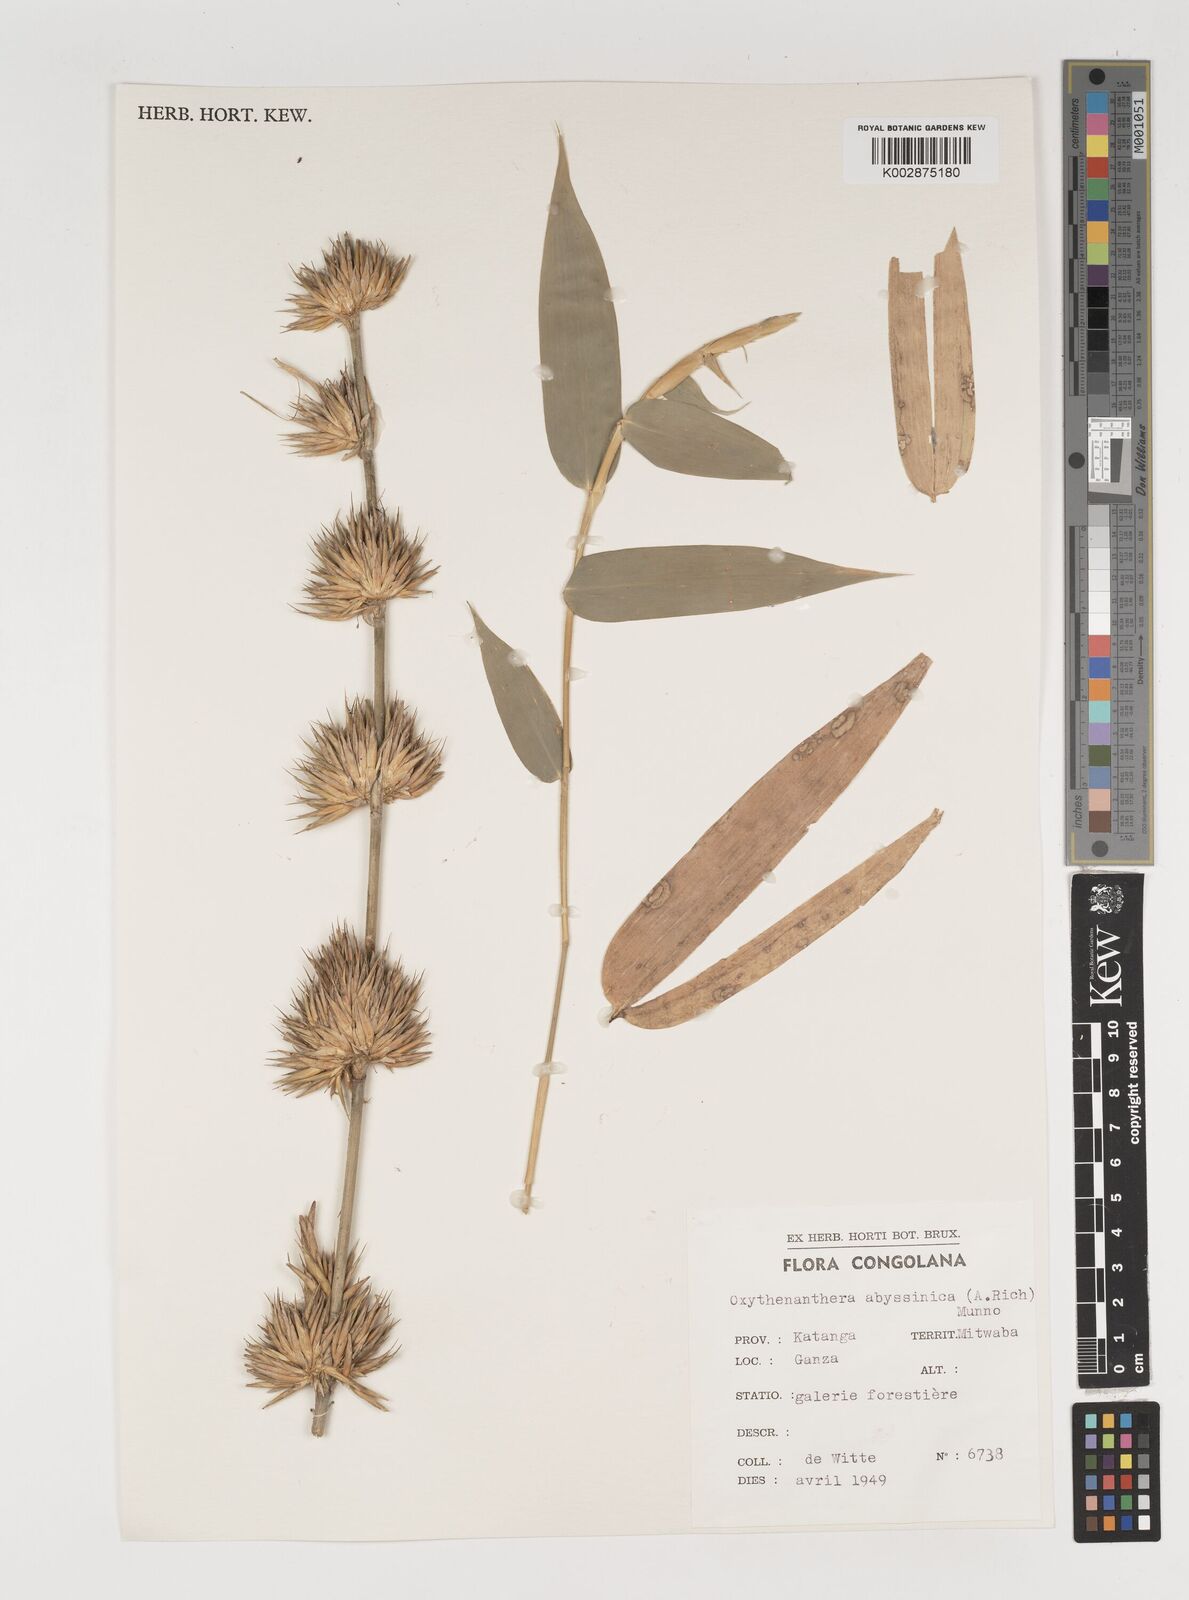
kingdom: Plantae
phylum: Tracheophyta
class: Liliopsida
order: Poales
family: Poaceae
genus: Oxytenanthera
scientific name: Oxytenanthera abyssinica
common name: Wine bamboo
